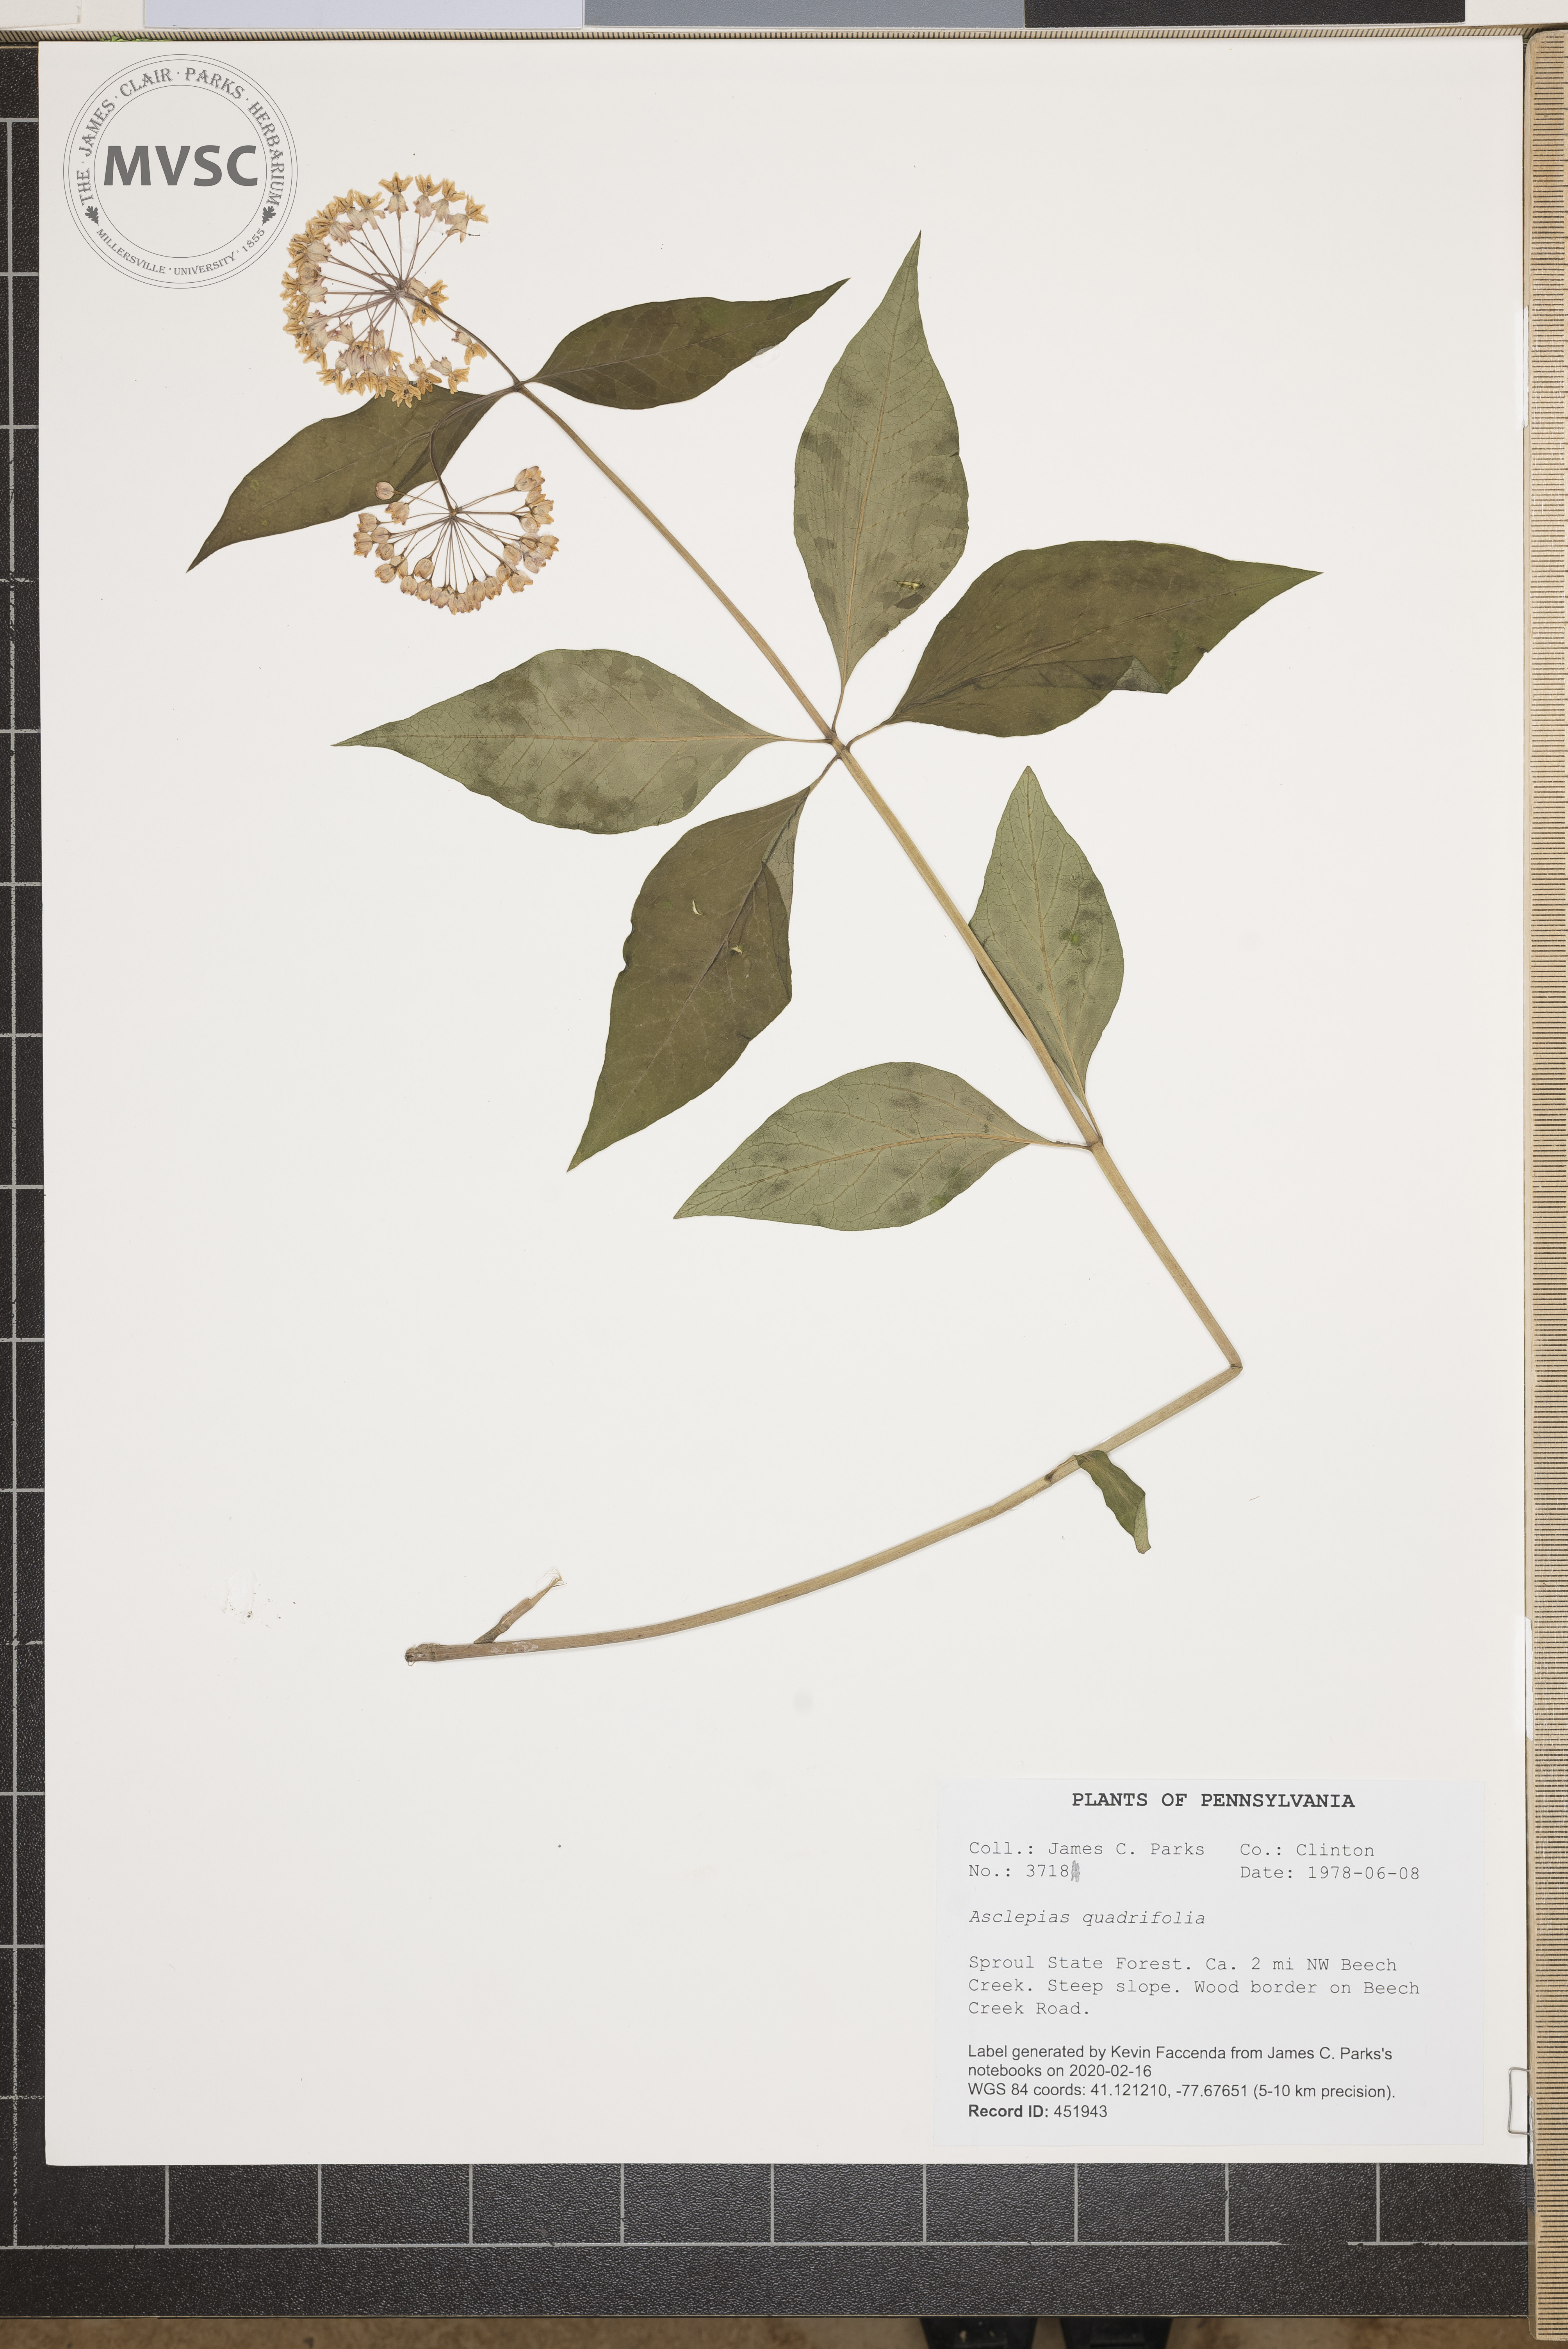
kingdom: Plantae
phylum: Tracheophyta
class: Magnoliopsida
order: Gentianales
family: Apocynaceae
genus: Asclepias
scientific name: Asclepias quadrifolia
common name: Whorled milkweed
